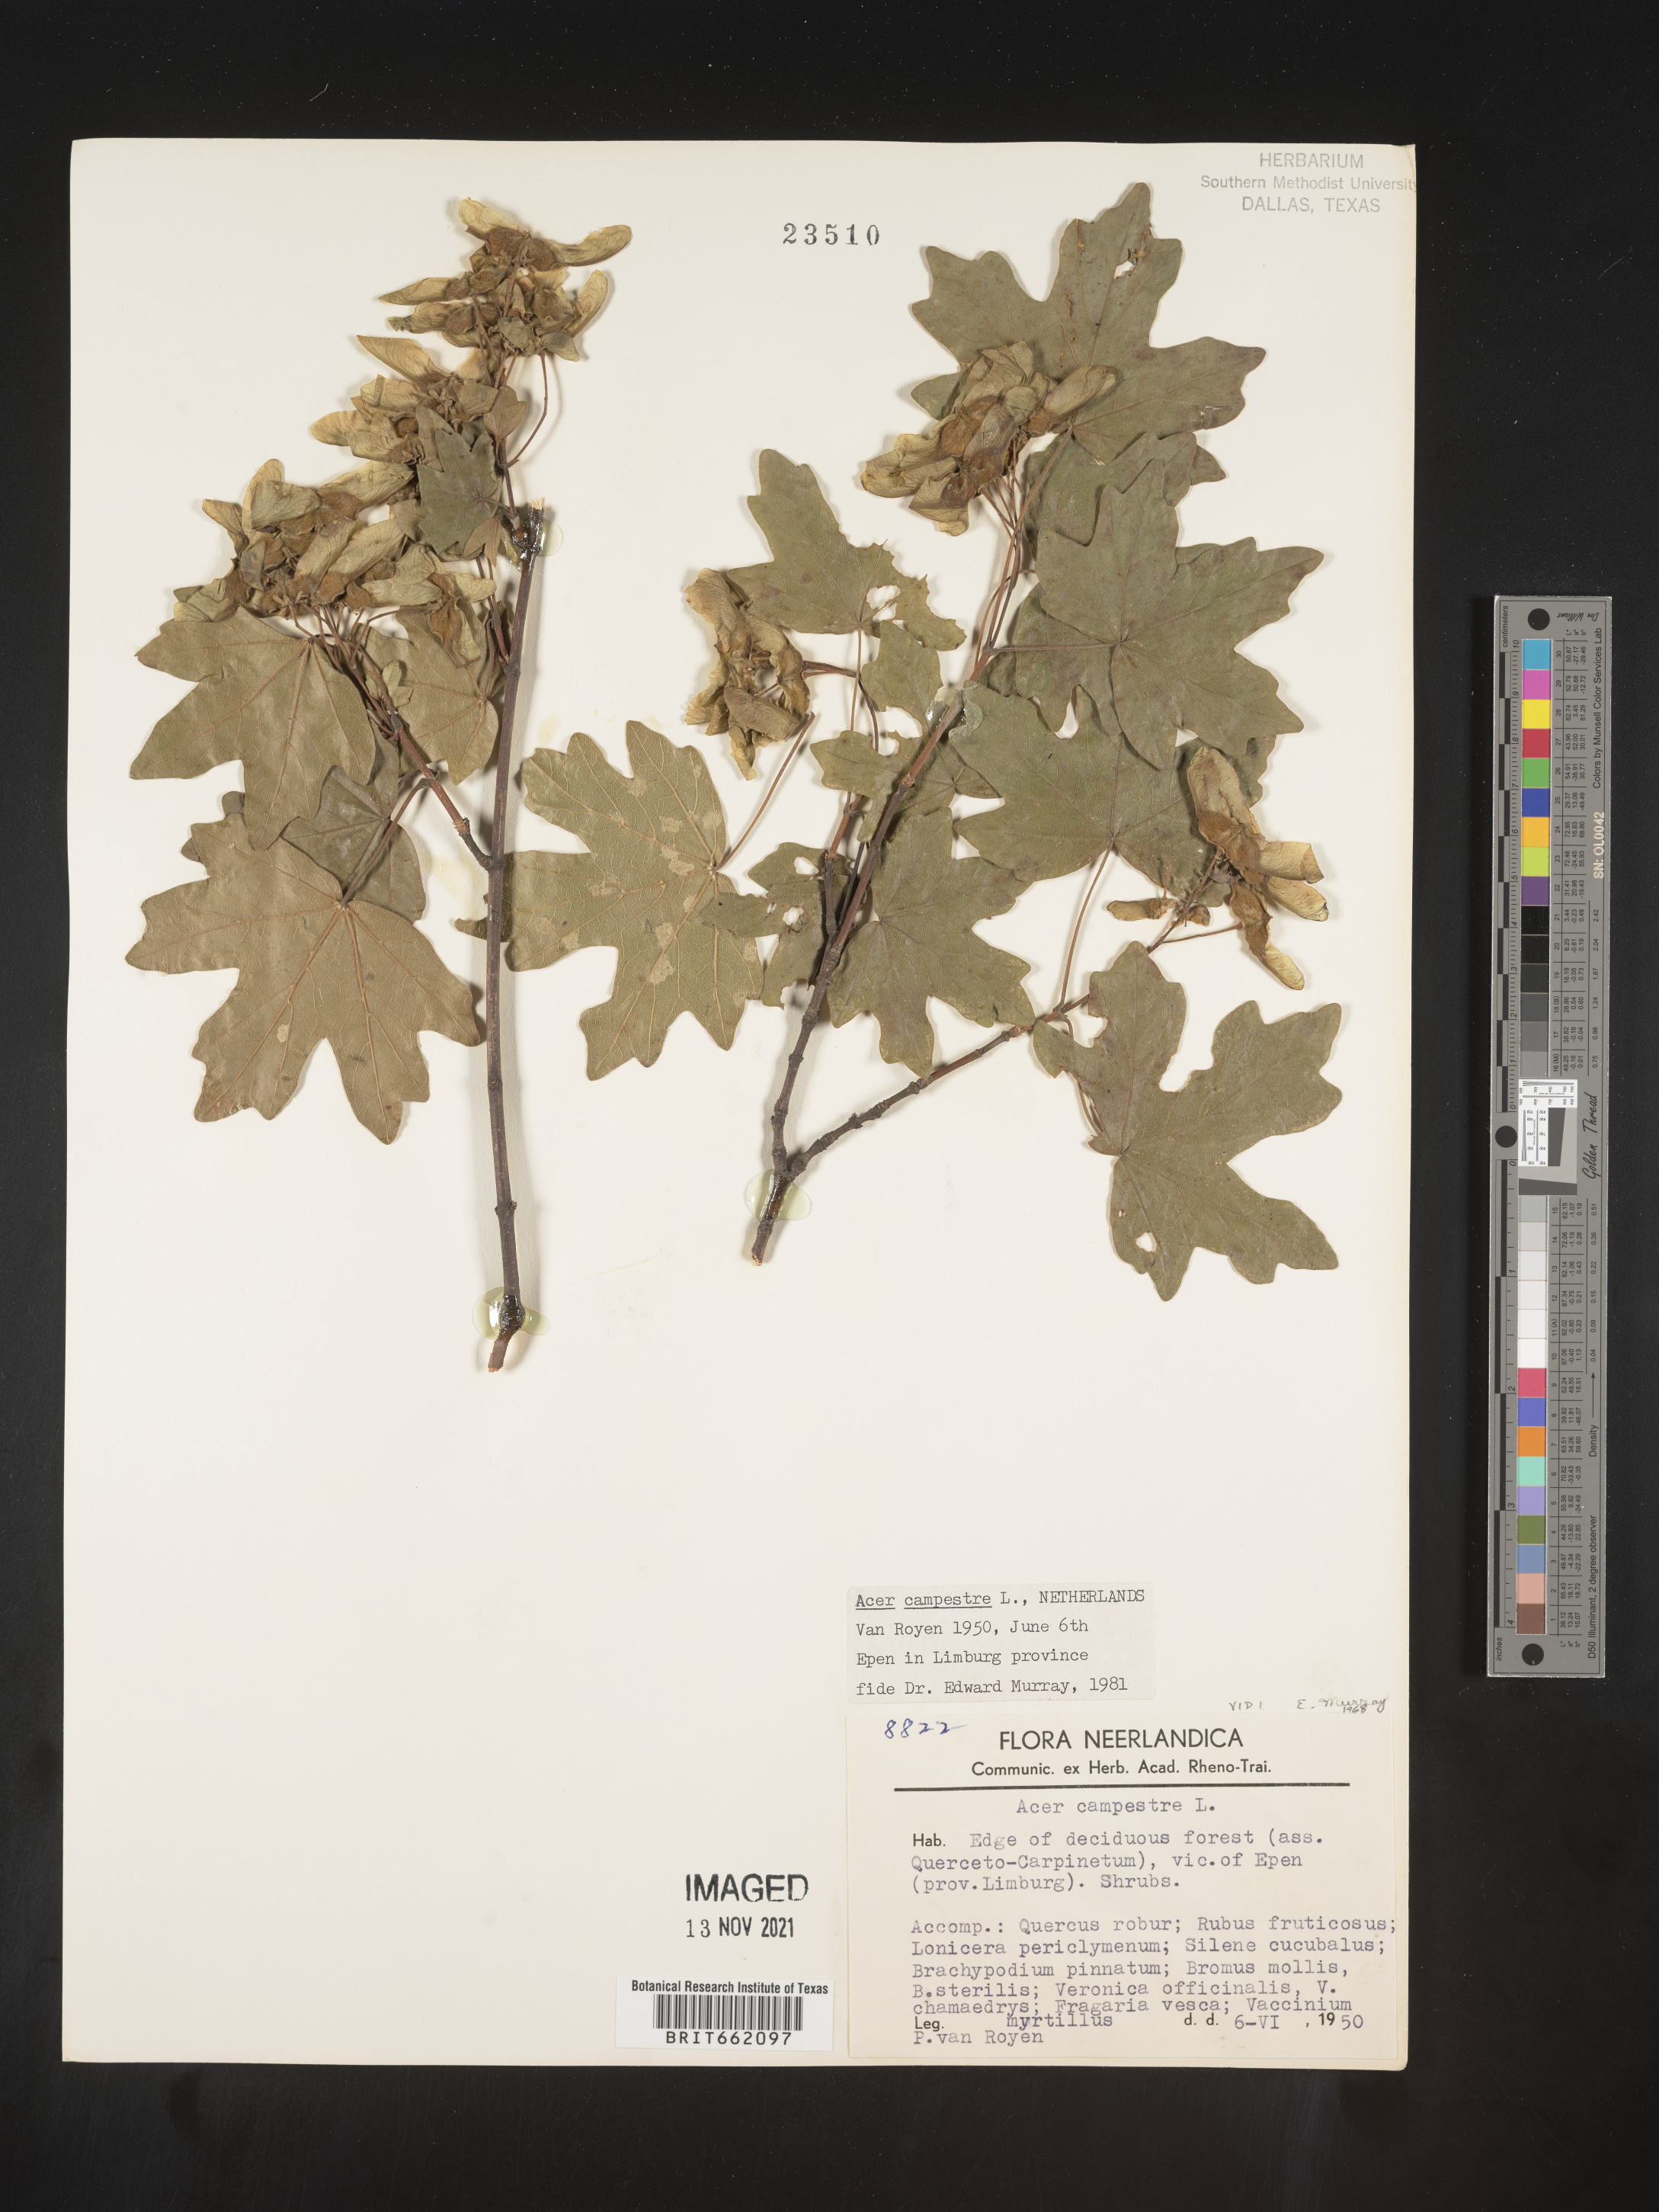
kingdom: Plantae
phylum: Tracheophyta
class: Magnoliopsida
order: Sapindales
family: Sapindaceae
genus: Acer
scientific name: Acer
